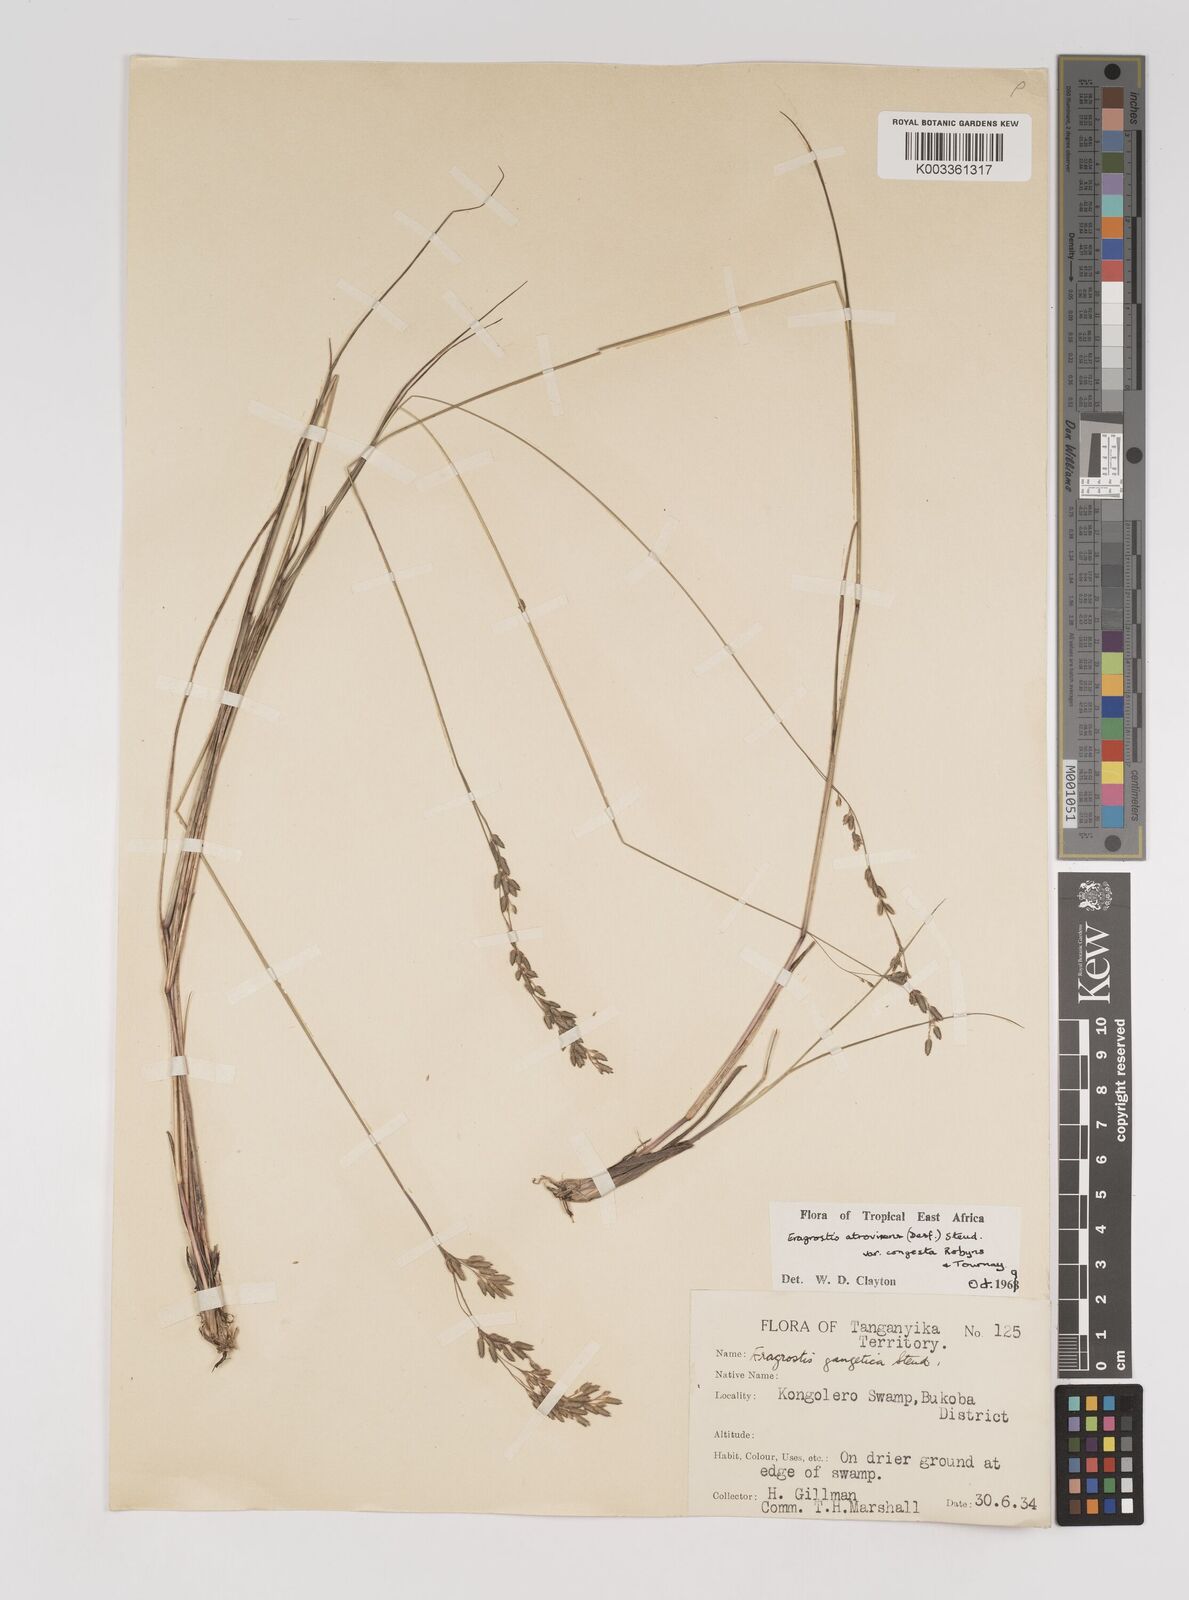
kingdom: Plantae
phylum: Tracheophyta
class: Liliopsida
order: Poales
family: Poaceae
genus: Eragrostis
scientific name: Eragrostis botryodes
